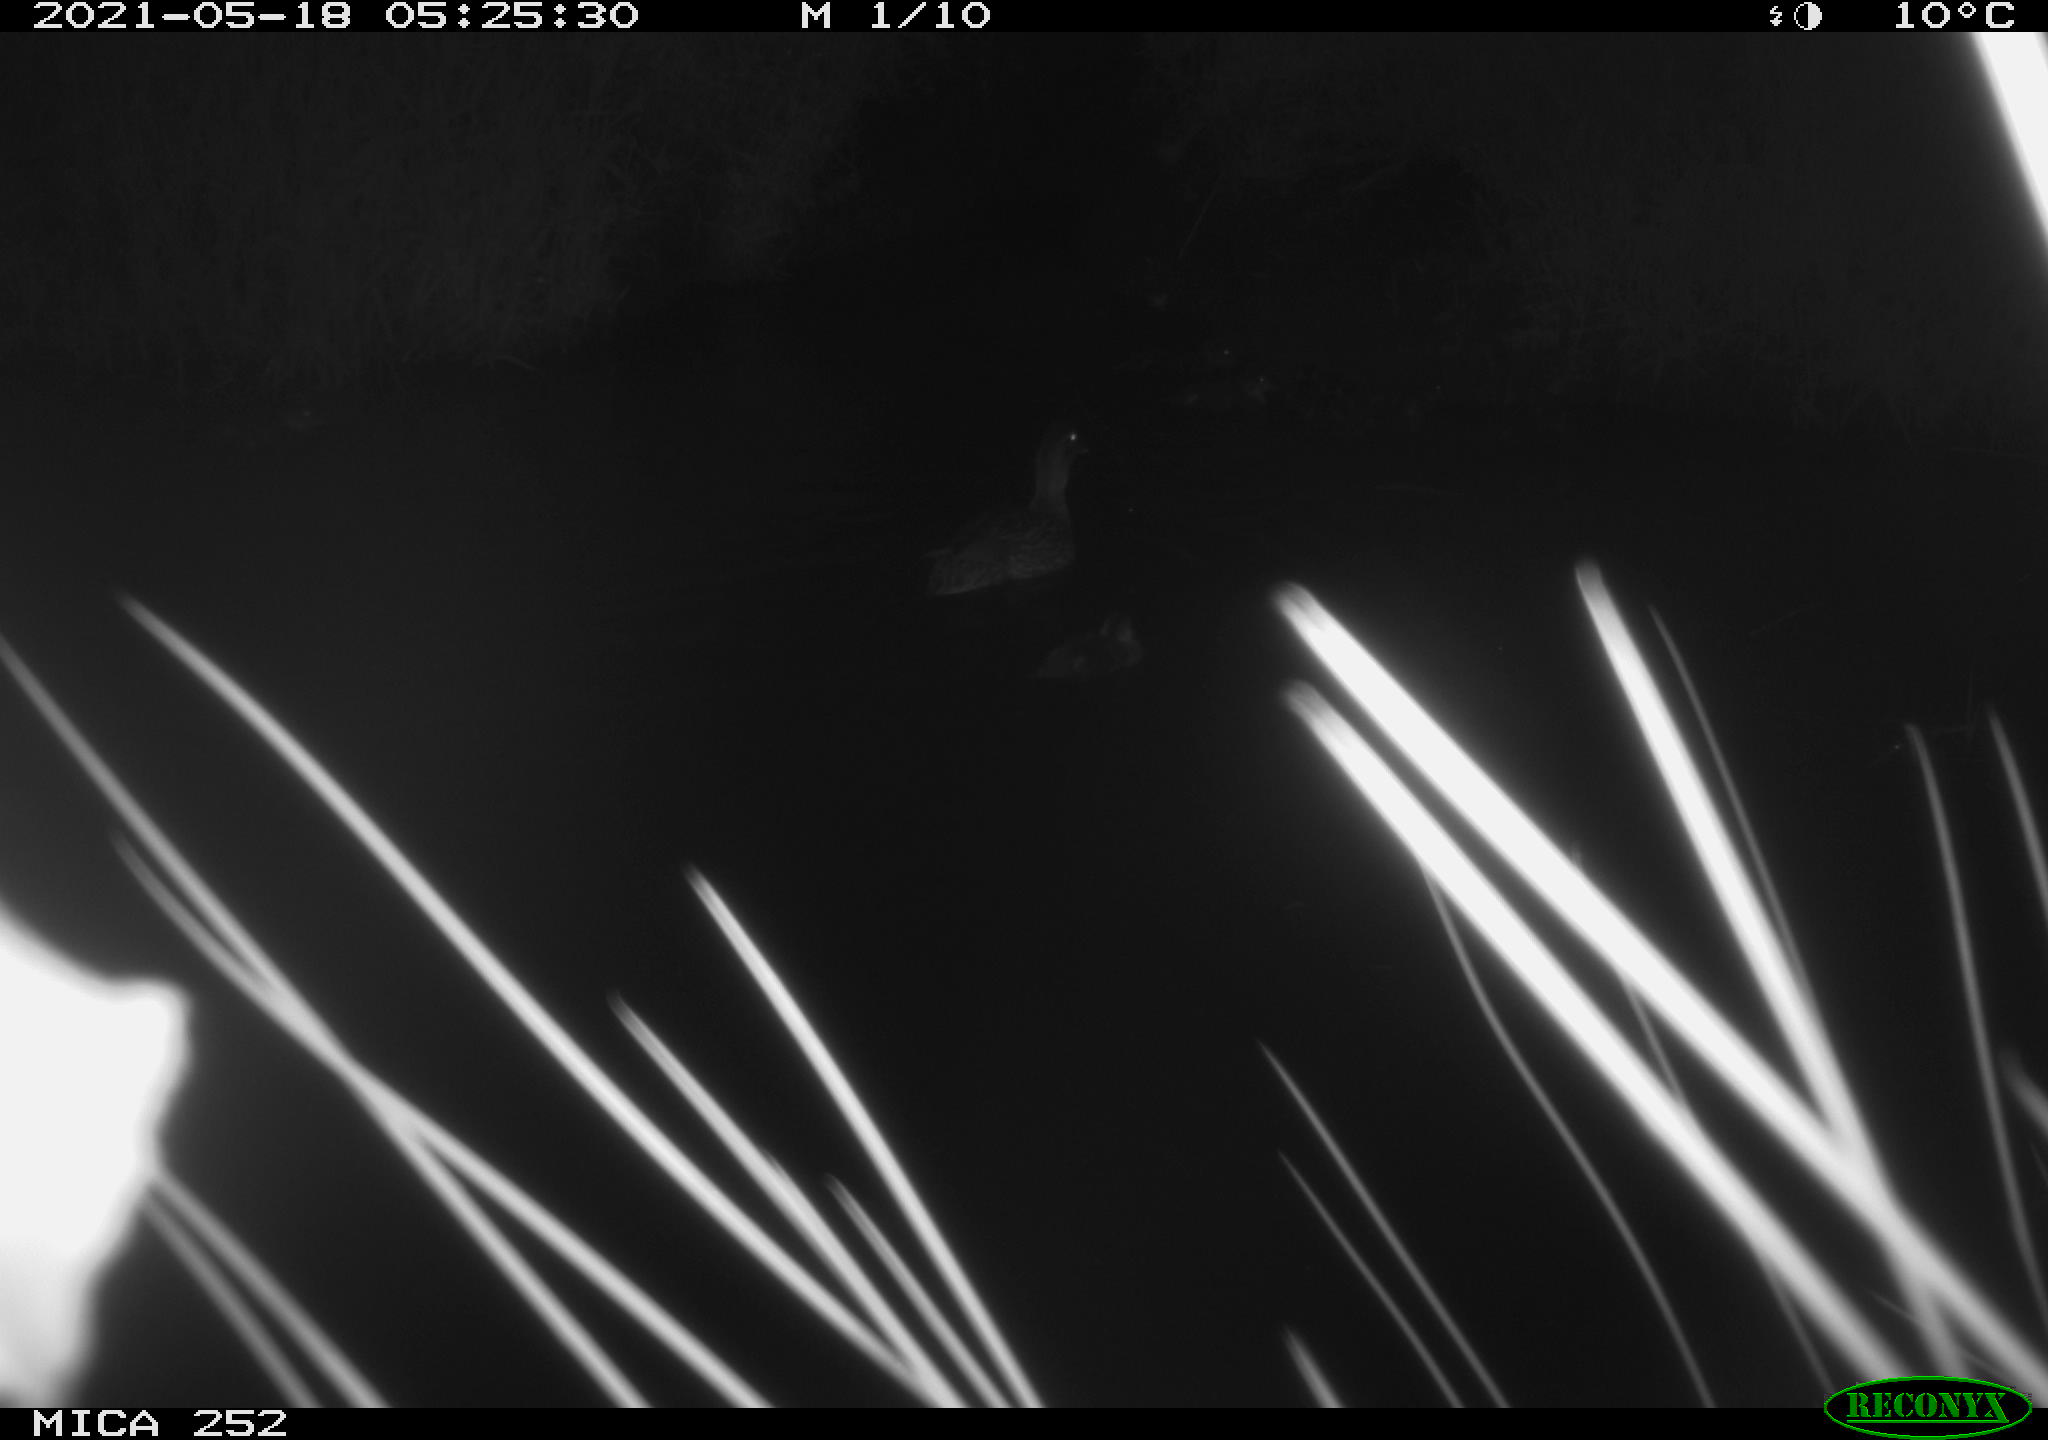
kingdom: Animalia
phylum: Chordata
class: Aves
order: Anseriformes
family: Anatidae
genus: Anas
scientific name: Anas platyrhynchos
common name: Mallard
